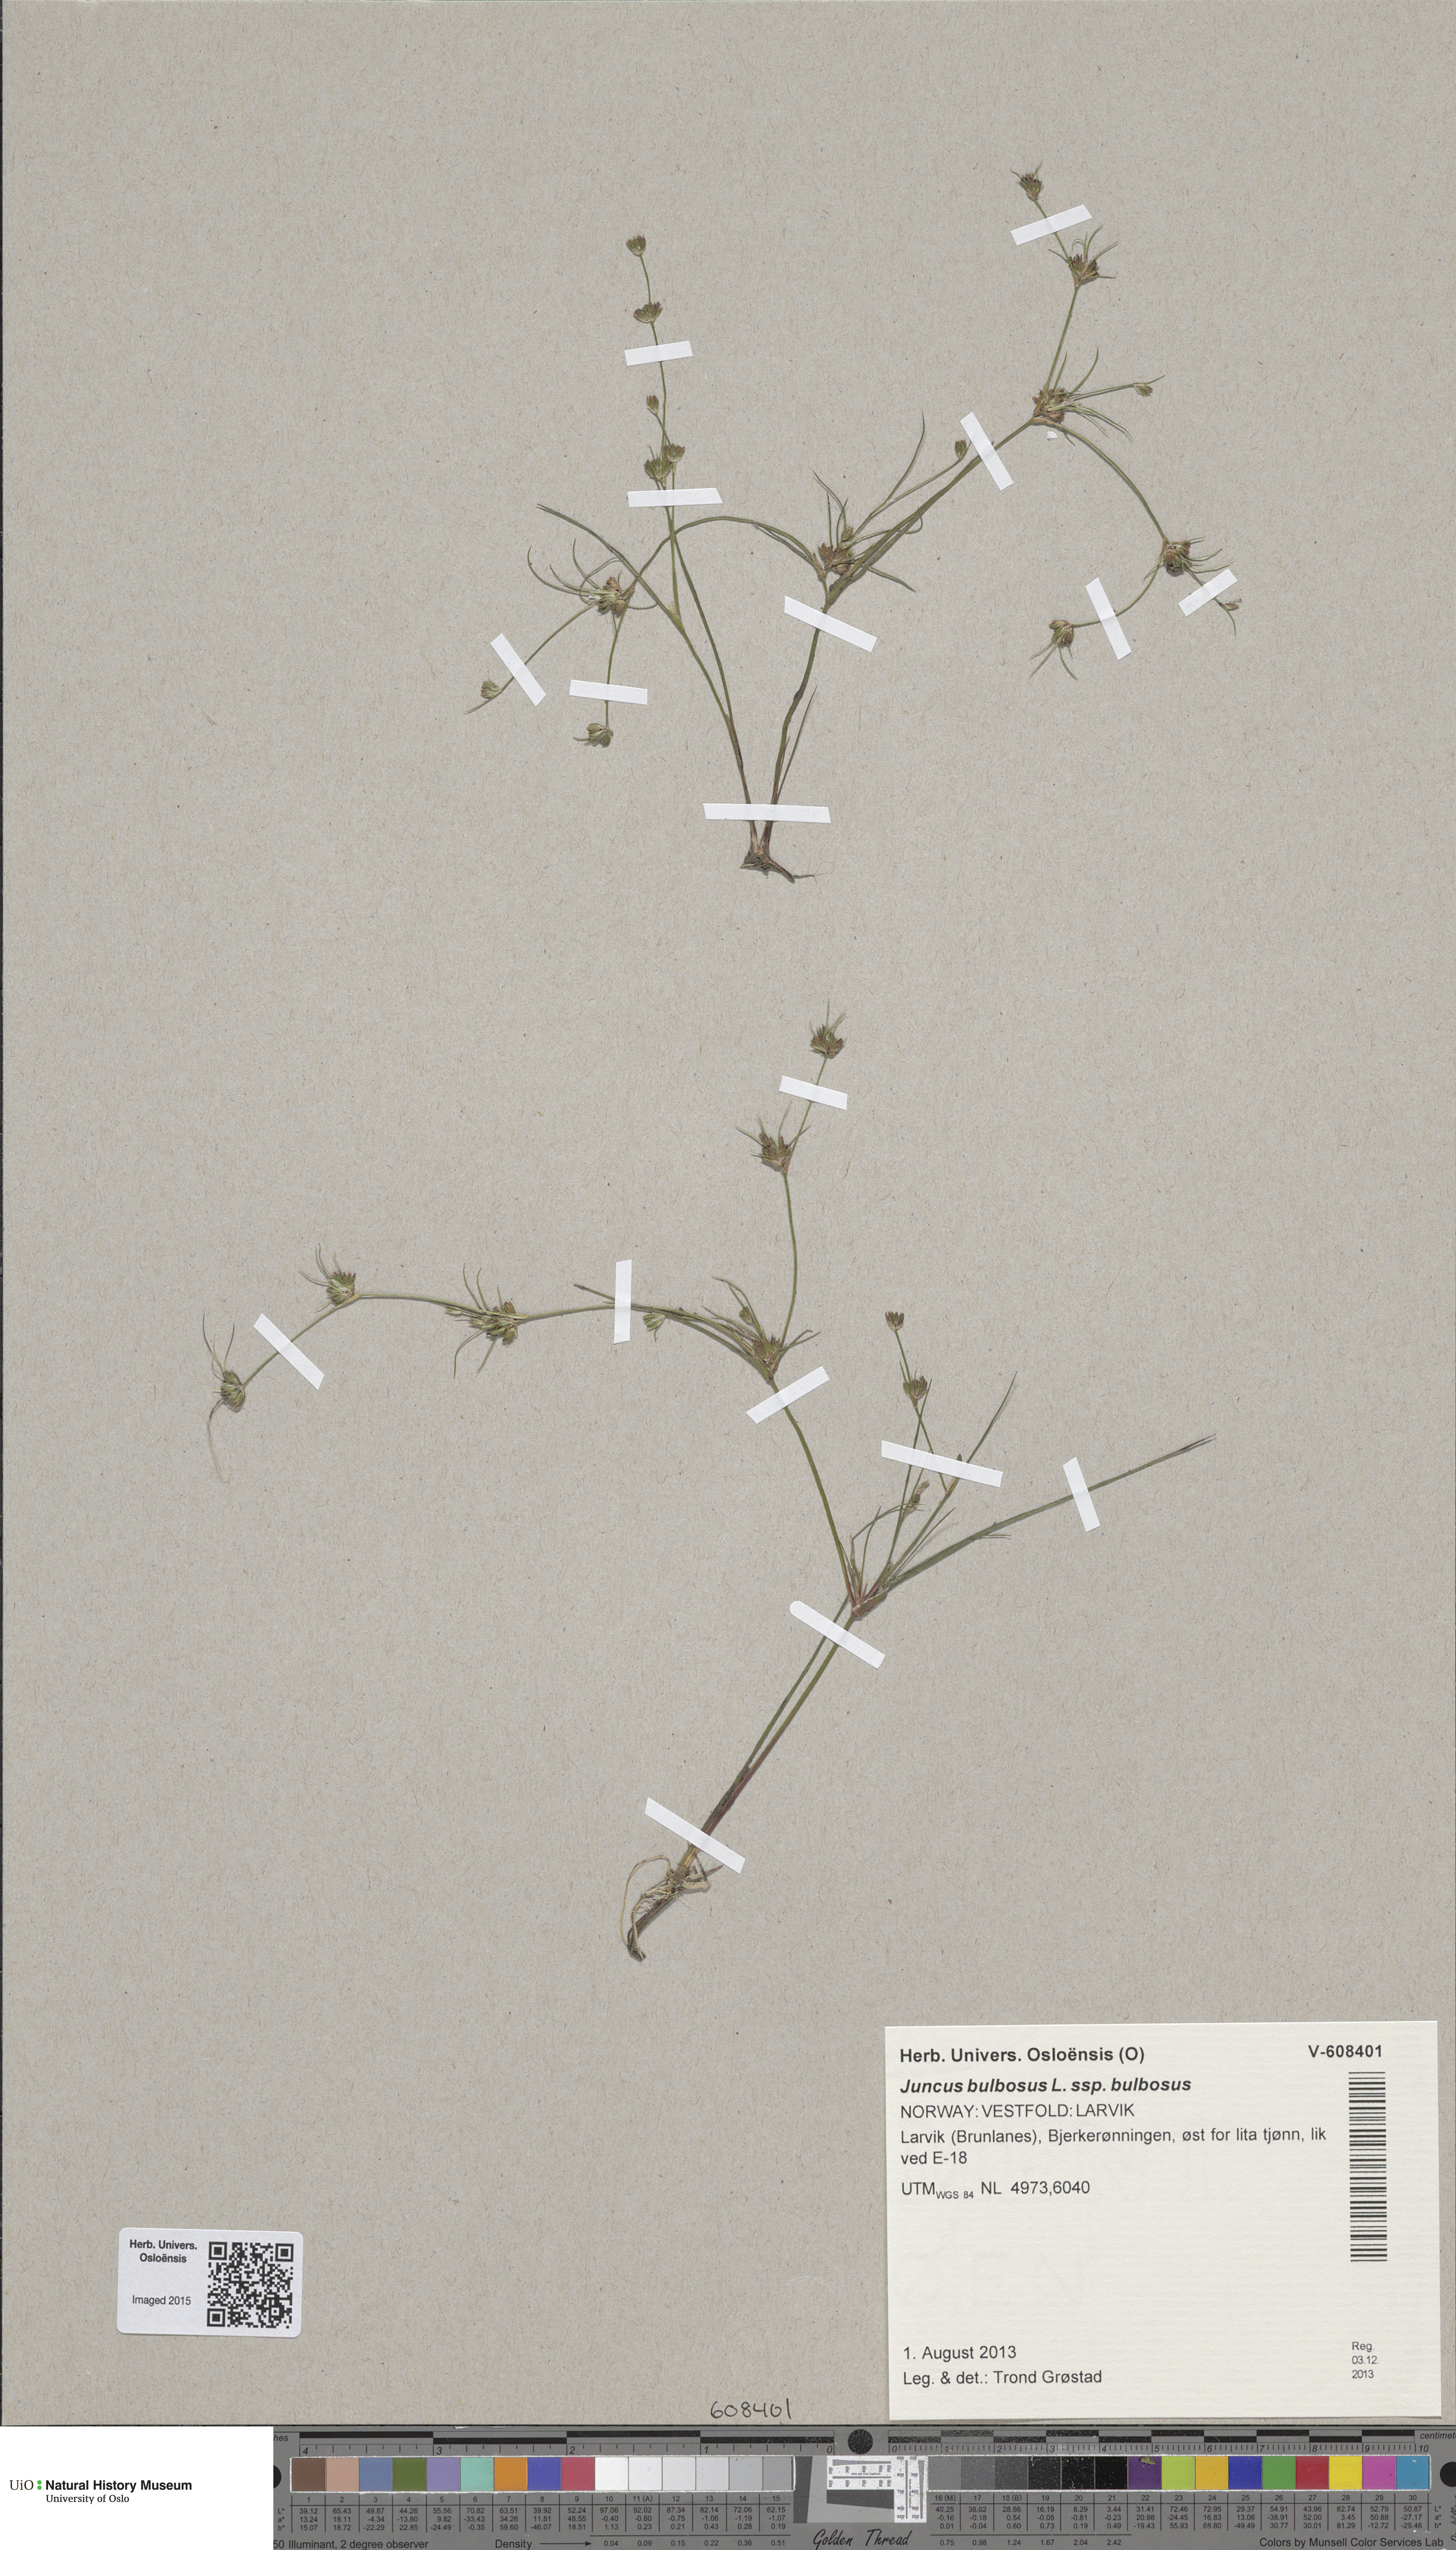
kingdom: Plantae
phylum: Tracheophyta
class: Liliopsida
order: Poales
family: Juncaceae
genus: Juncus
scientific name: Juncus bulbosus
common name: Bulbous rush
